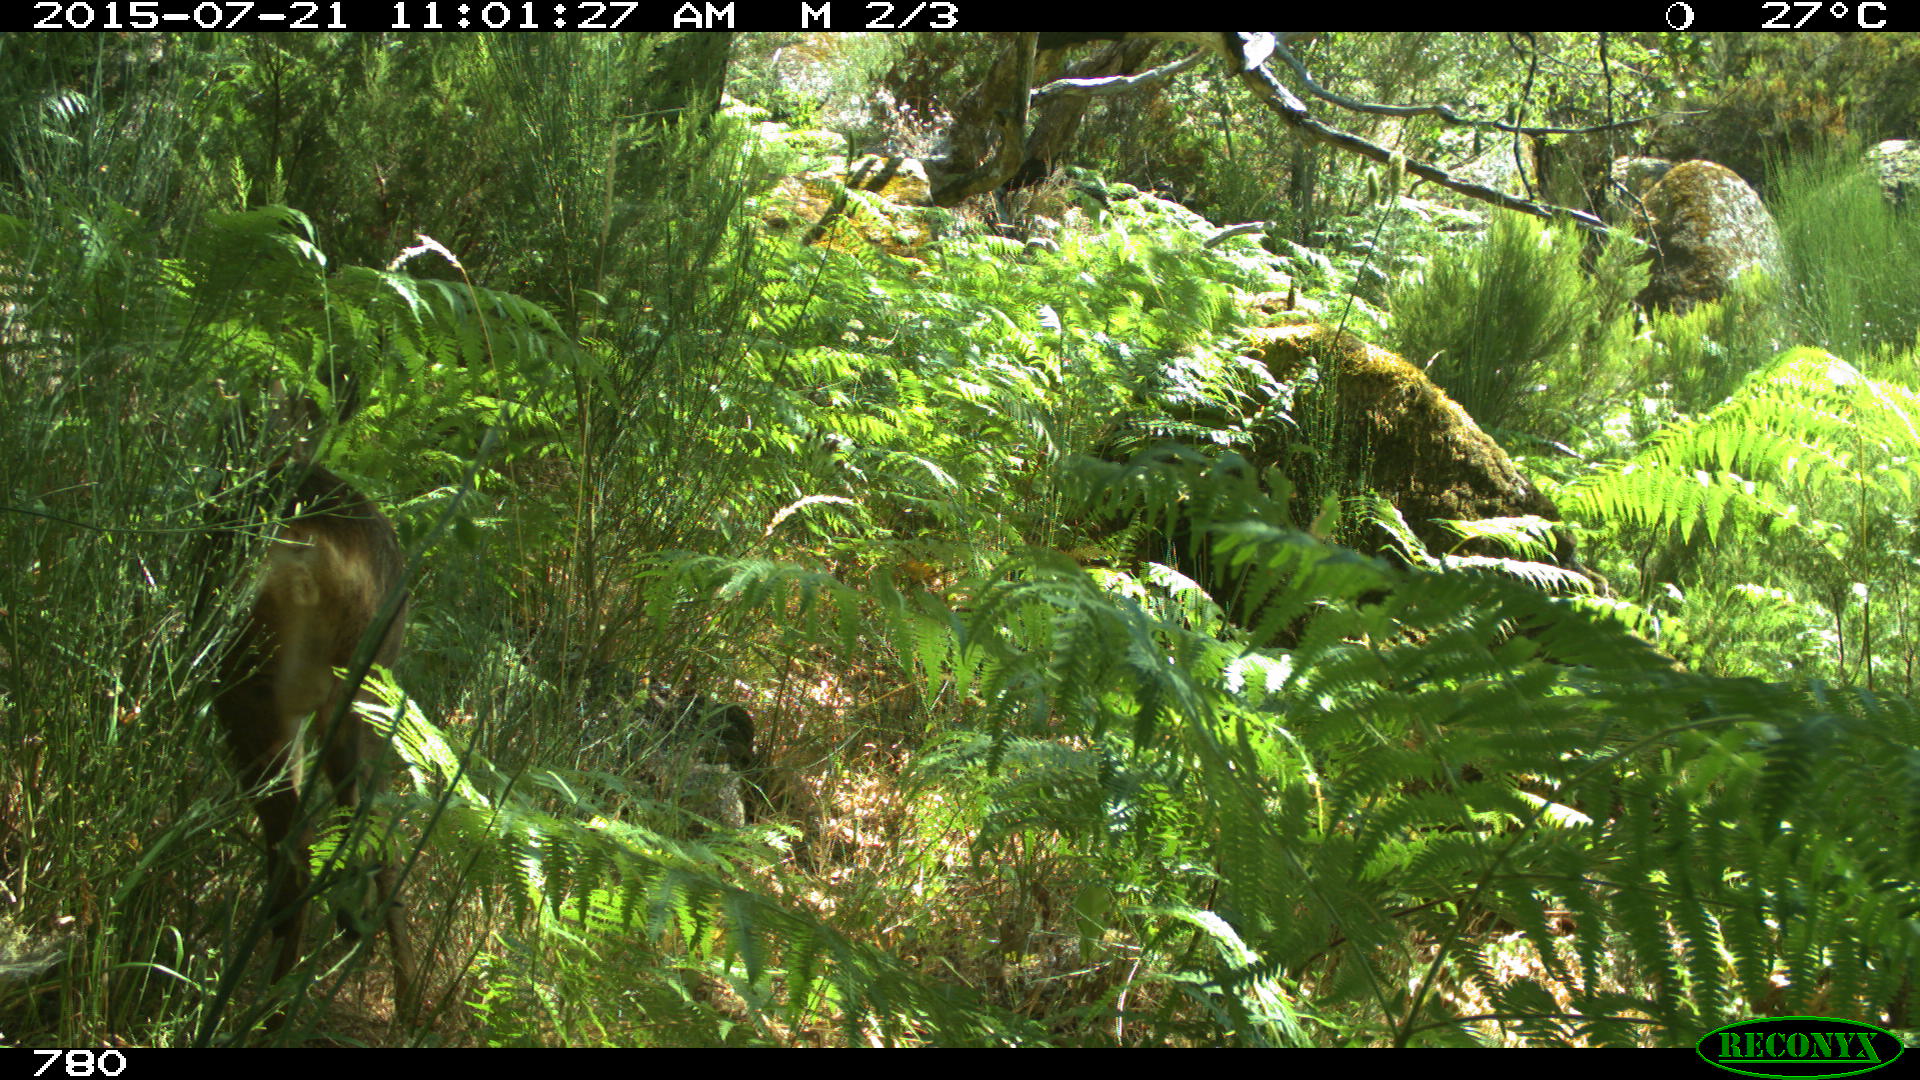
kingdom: Animalia
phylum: Chordata
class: Mammalia
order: Artiodactyla
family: Cervidae
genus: Capreolus
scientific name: Capreolus capreolus
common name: Western roe deer
